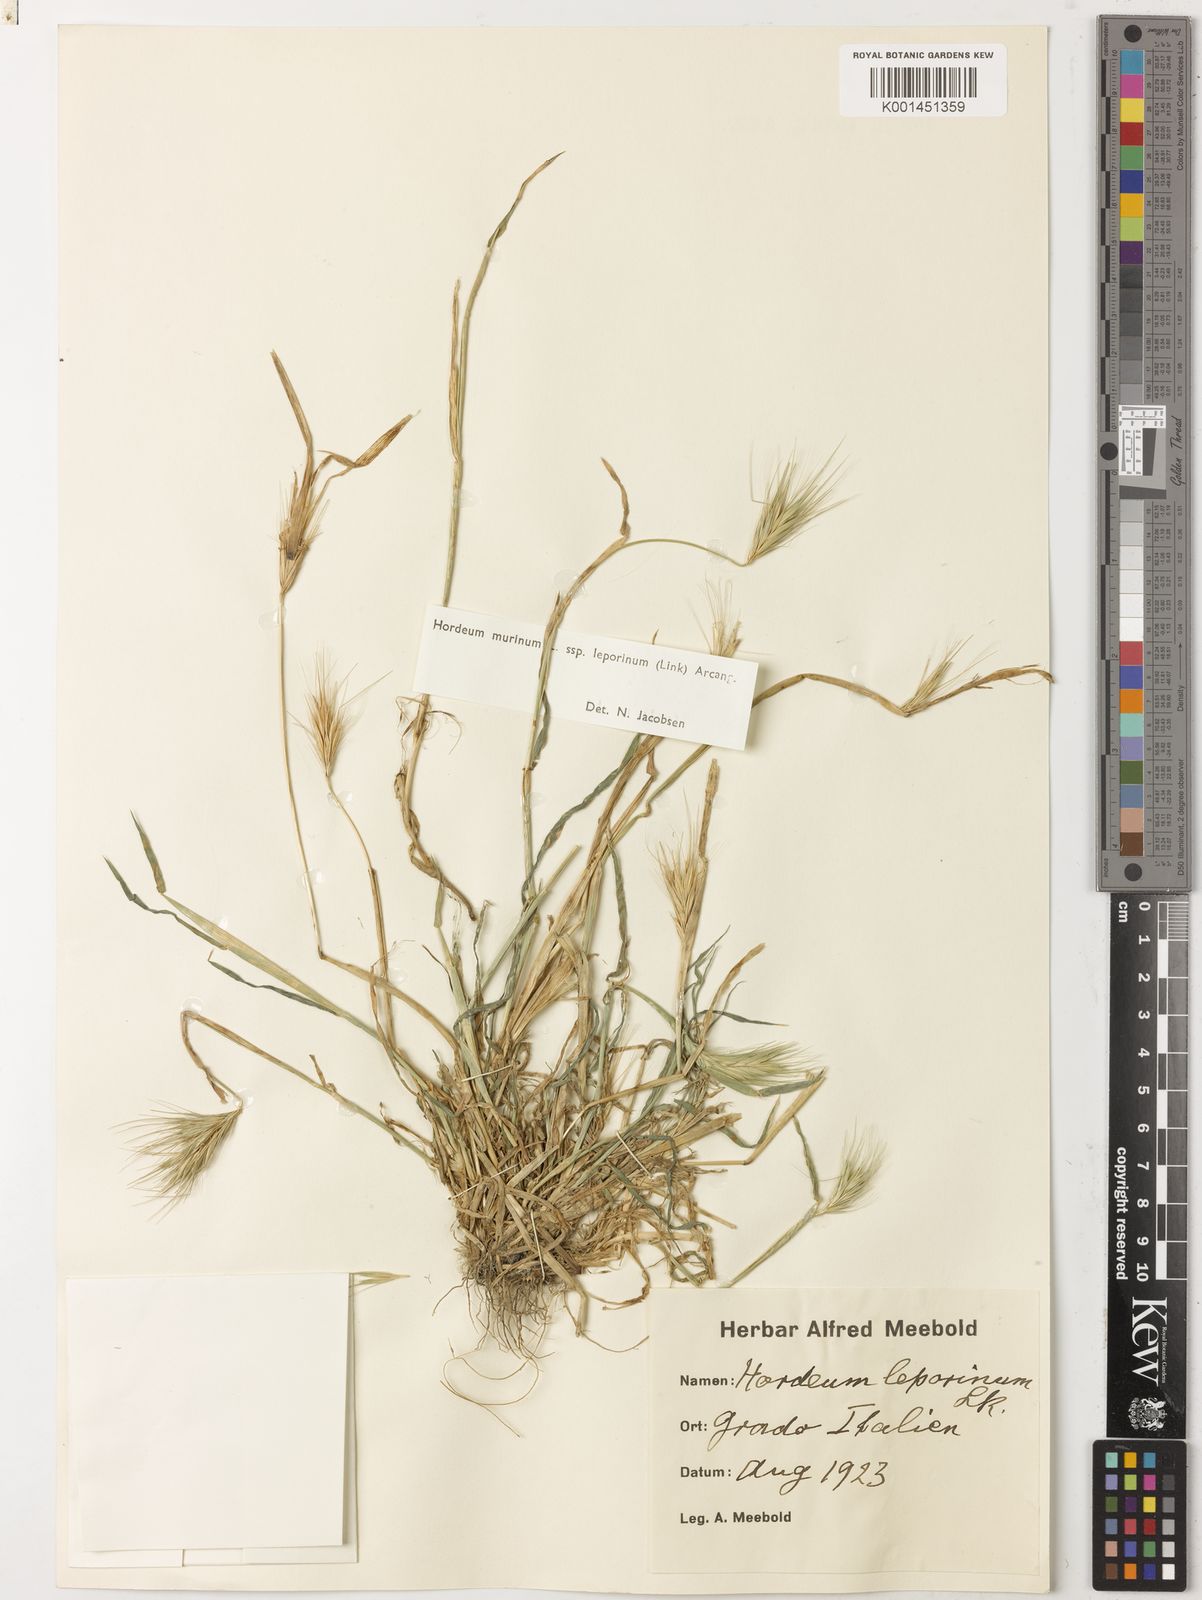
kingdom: Plantae
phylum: Tracheophyta
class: Liliopsida
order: Poales
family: Poaceae
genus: Hordeum
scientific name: Hordeum murinum
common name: Wall barley
